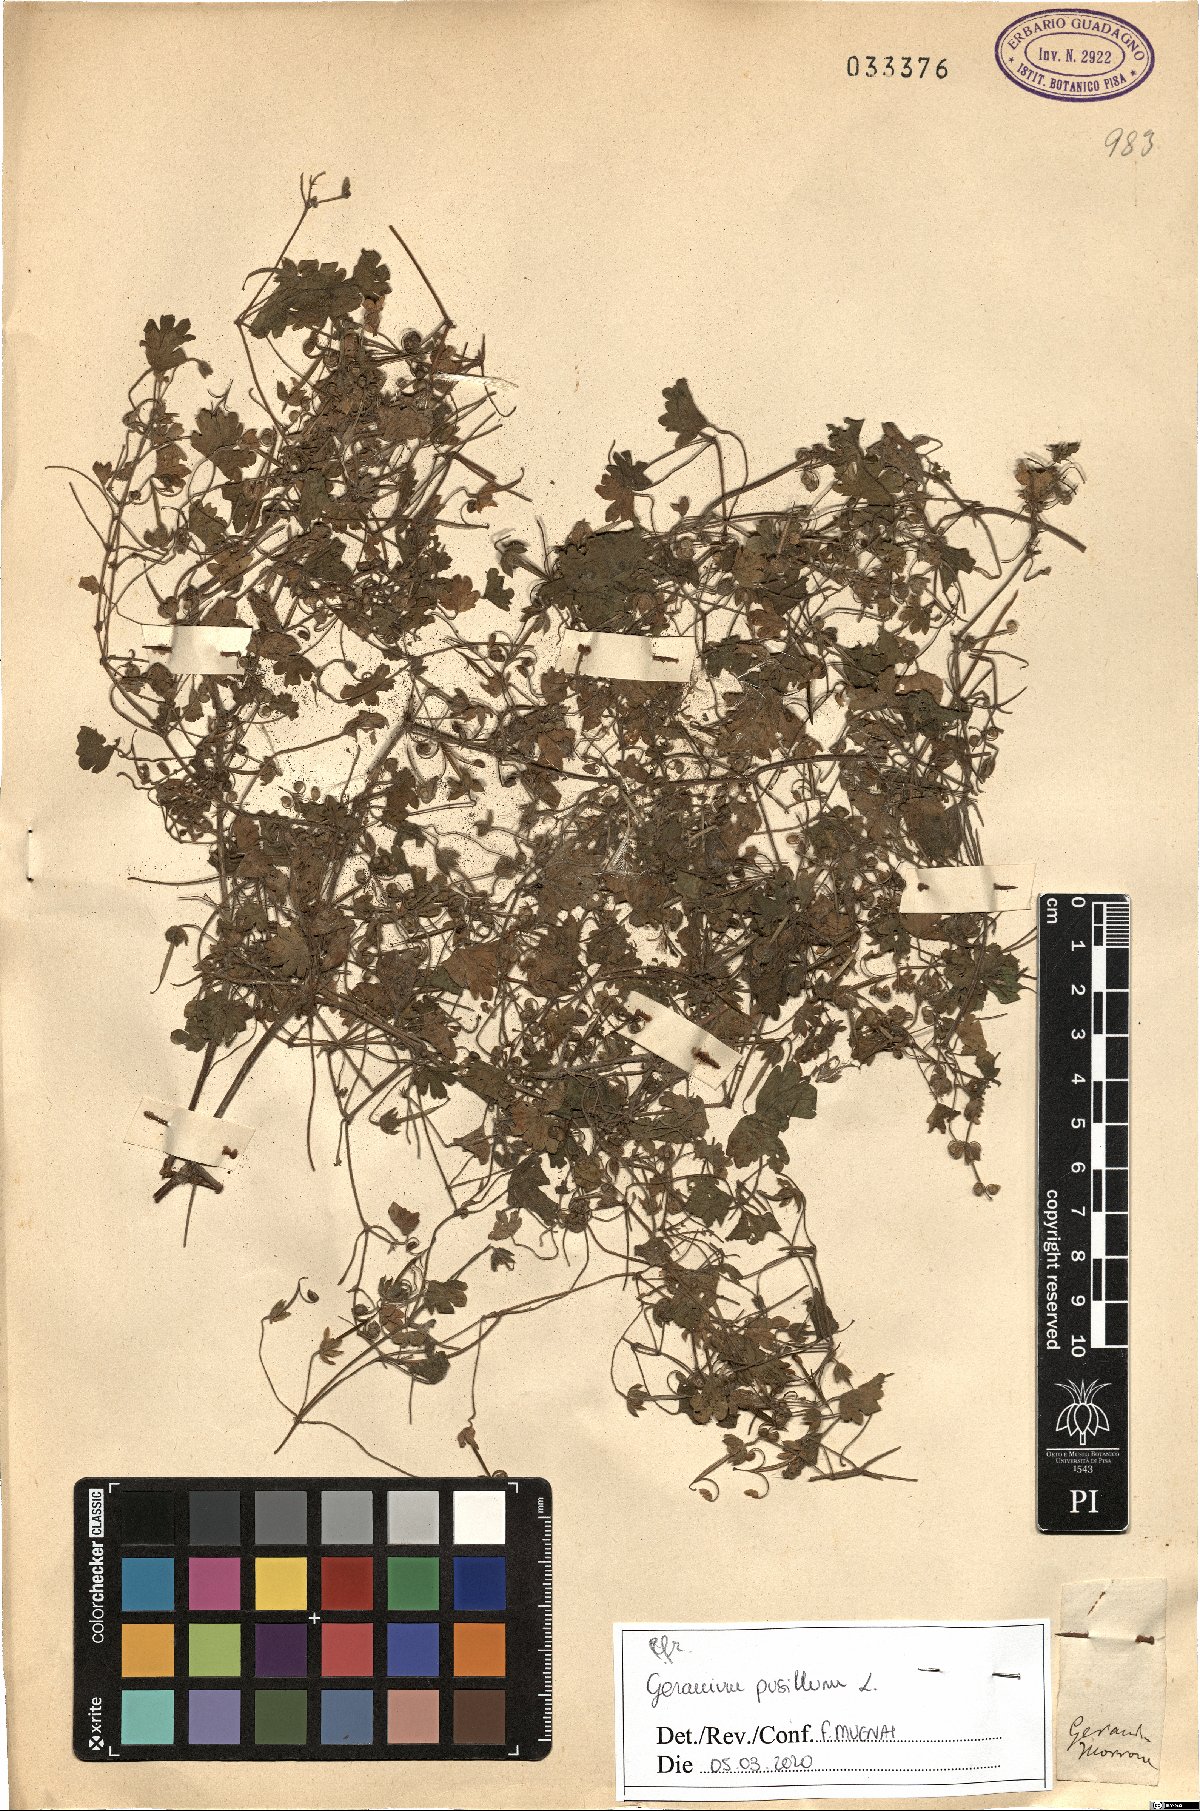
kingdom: Plantae
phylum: Tracheophyta
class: Magnoliopsida
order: Geraniales
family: Geraniaceae
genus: Geranium
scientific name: Geranium pusillum
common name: Small geranium
